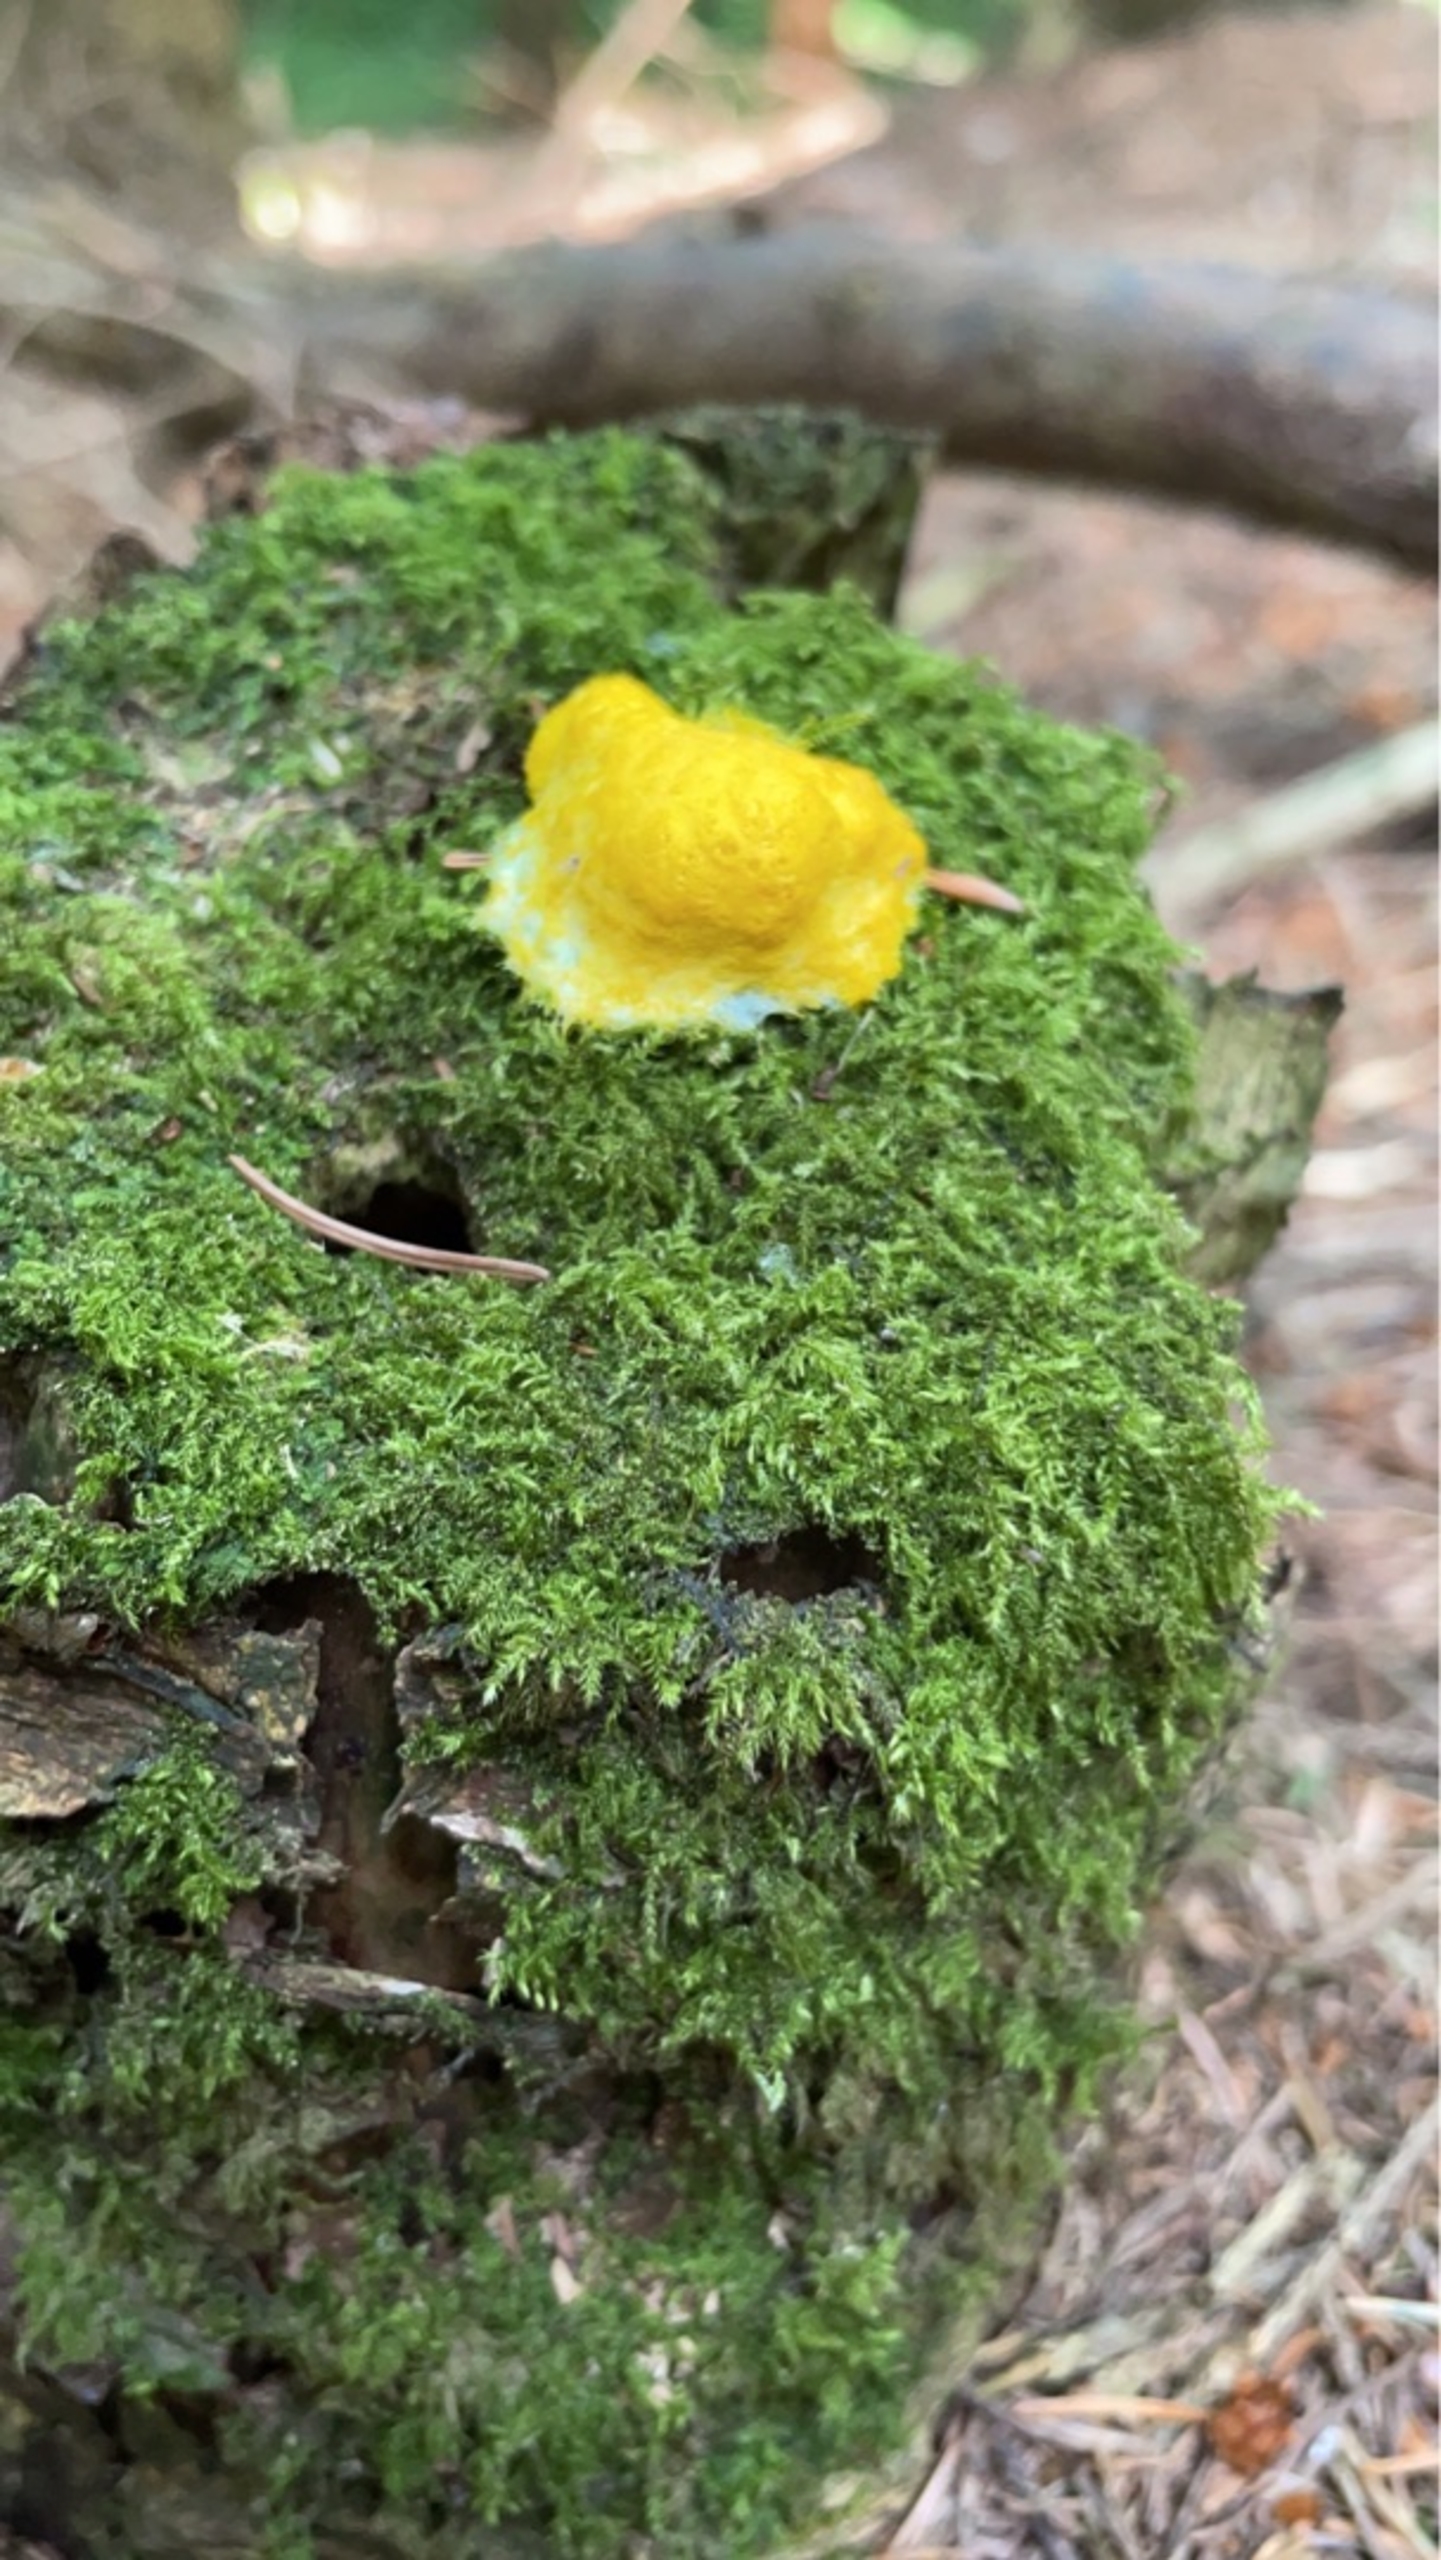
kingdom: Protozoa
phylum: Mycetozoa
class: Myxomycetes
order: Physarales
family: Physaraceae
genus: Fuligo
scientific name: Fuligo septica
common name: Gul troldsmør
